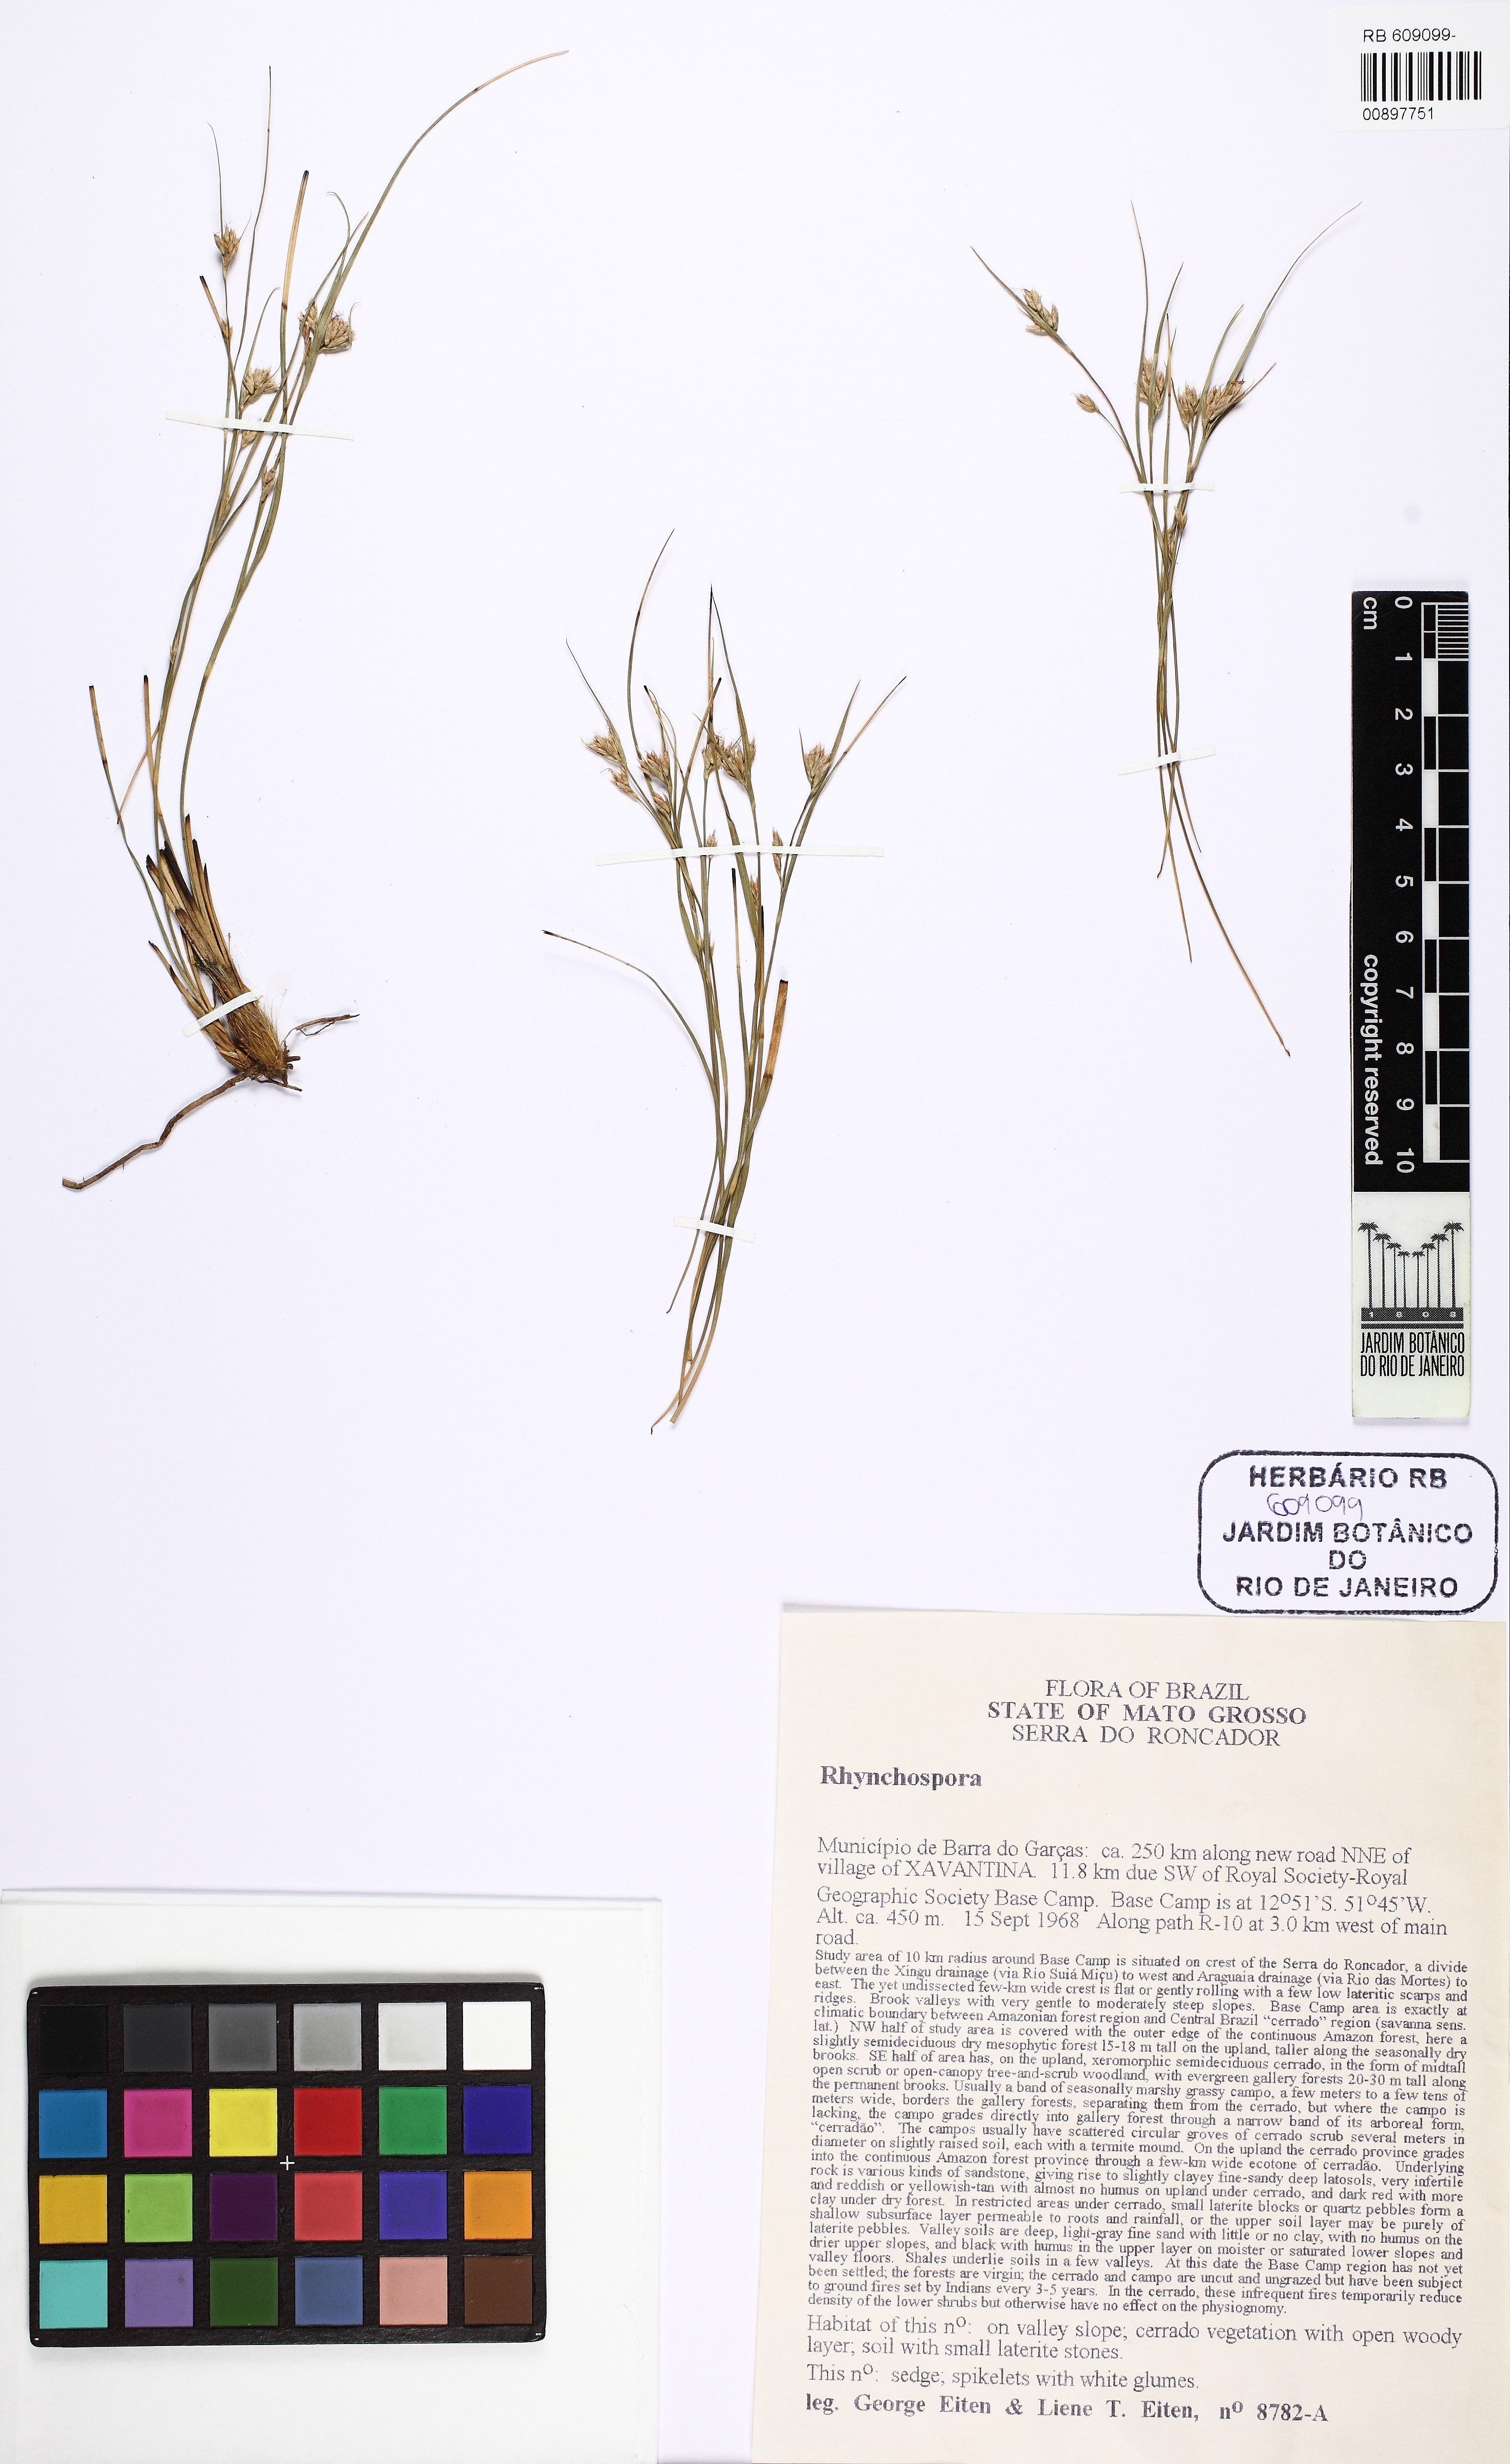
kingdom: Plantae
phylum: Tracheophyta
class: Liliopsida
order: Poales
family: Cyperaceae
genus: Rhynchospora
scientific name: Rhynchospora
